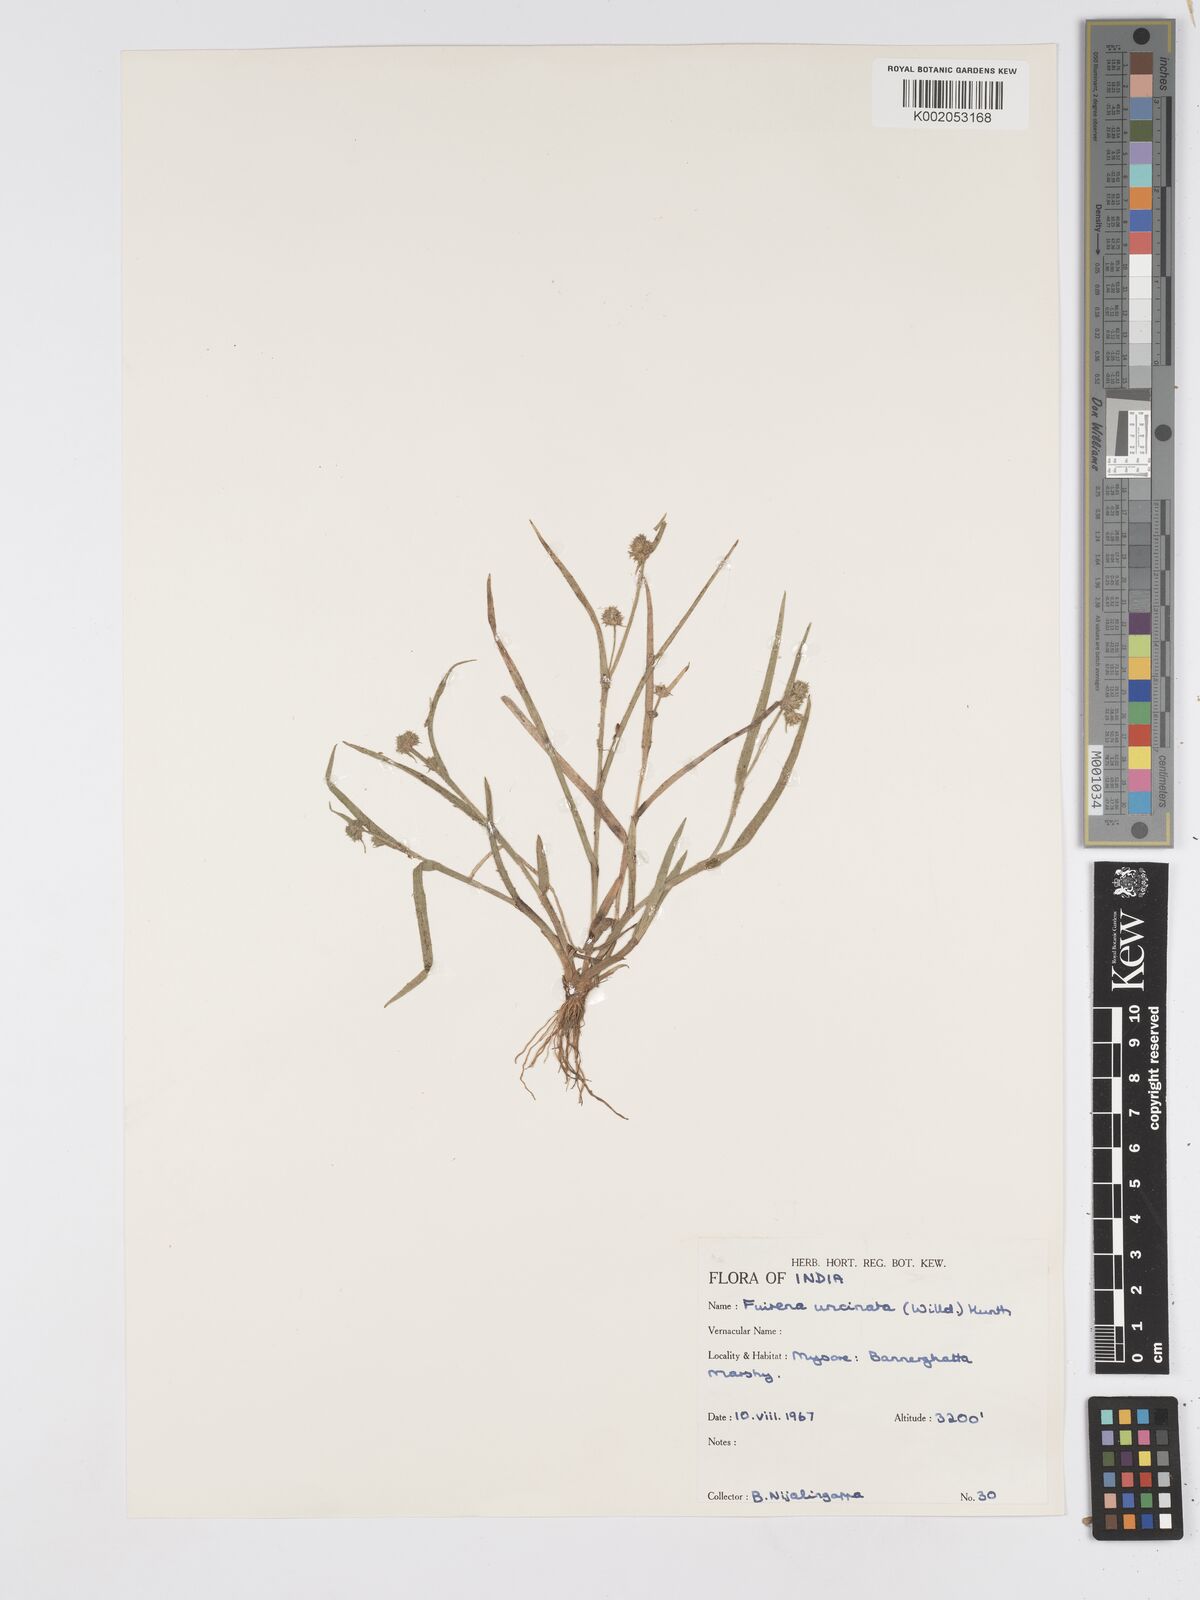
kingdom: Plantae
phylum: Tracheophyta
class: Liliopsida
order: Poales
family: Cyperaceae
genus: Fuirena
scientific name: Fuirena uncinata
